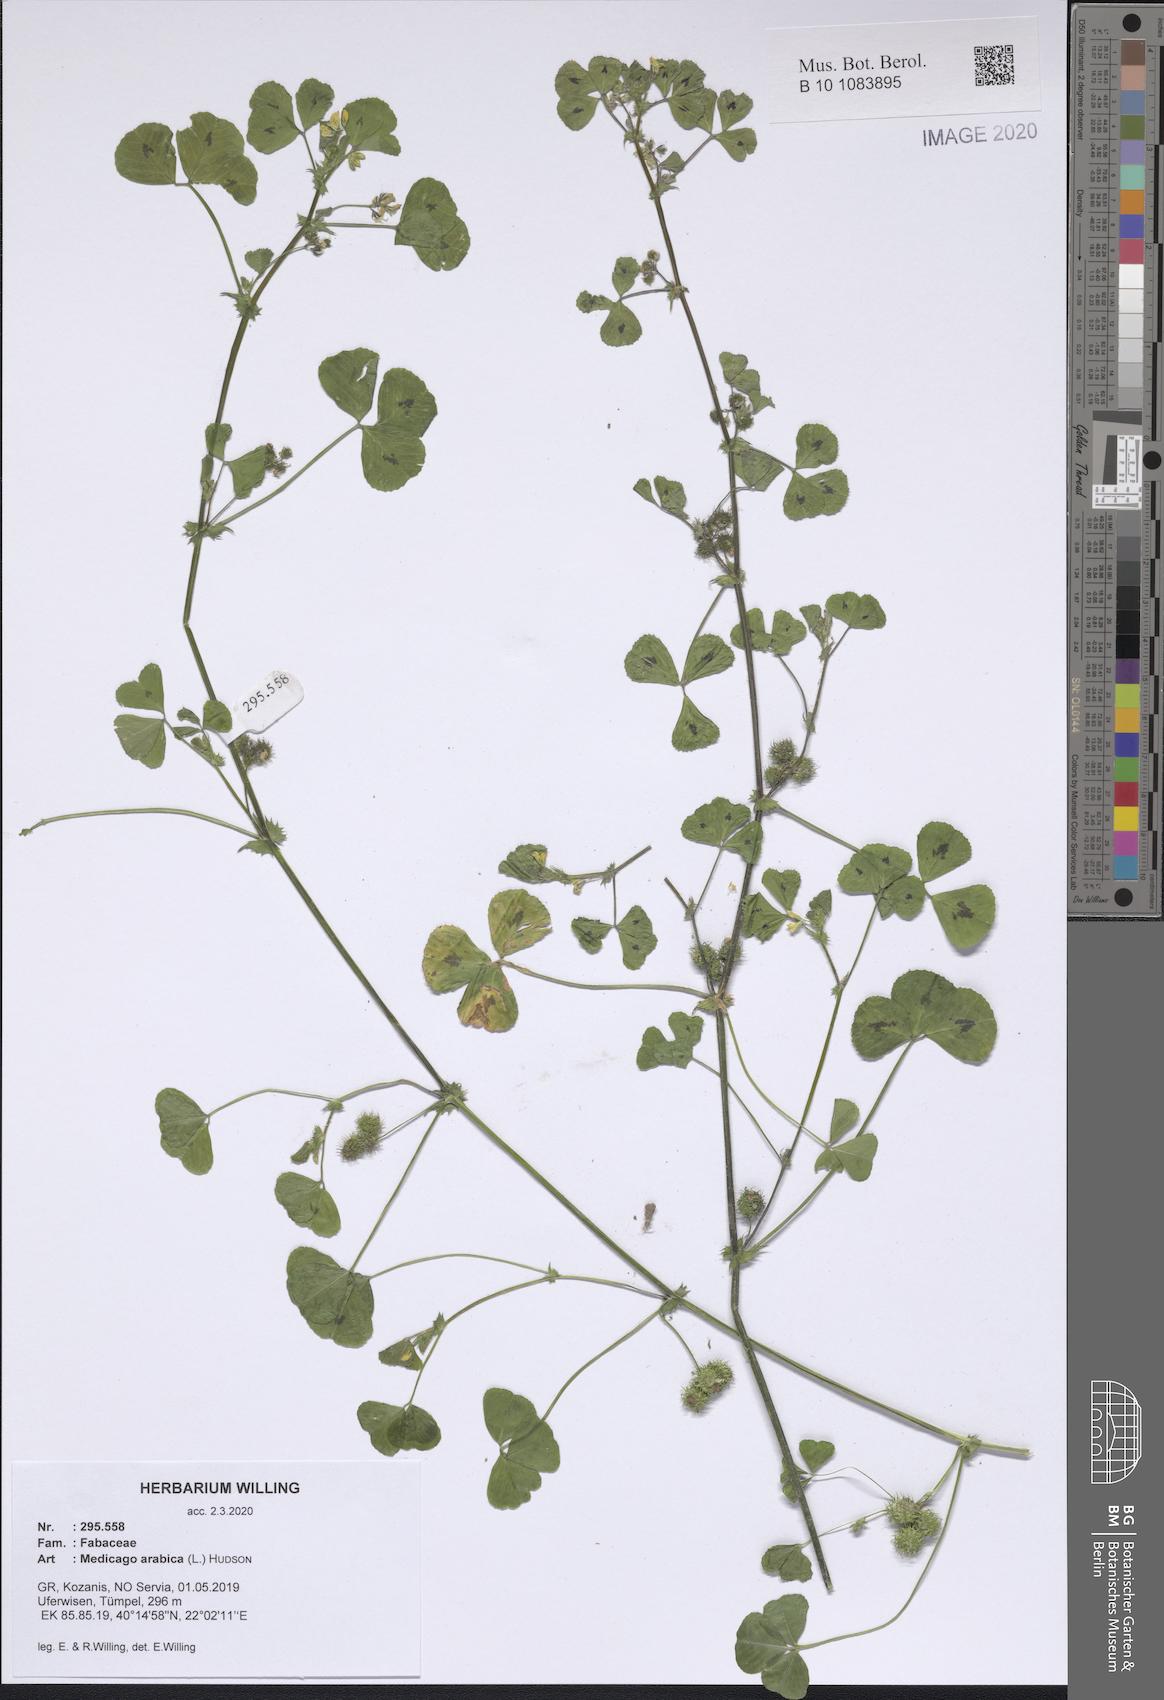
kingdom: Plantae
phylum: Tracheophyta
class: Magnoliopsida
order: Fabales
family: Fabaceae
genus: Medicago
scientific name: Medicago arabica
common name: Spotted medick
